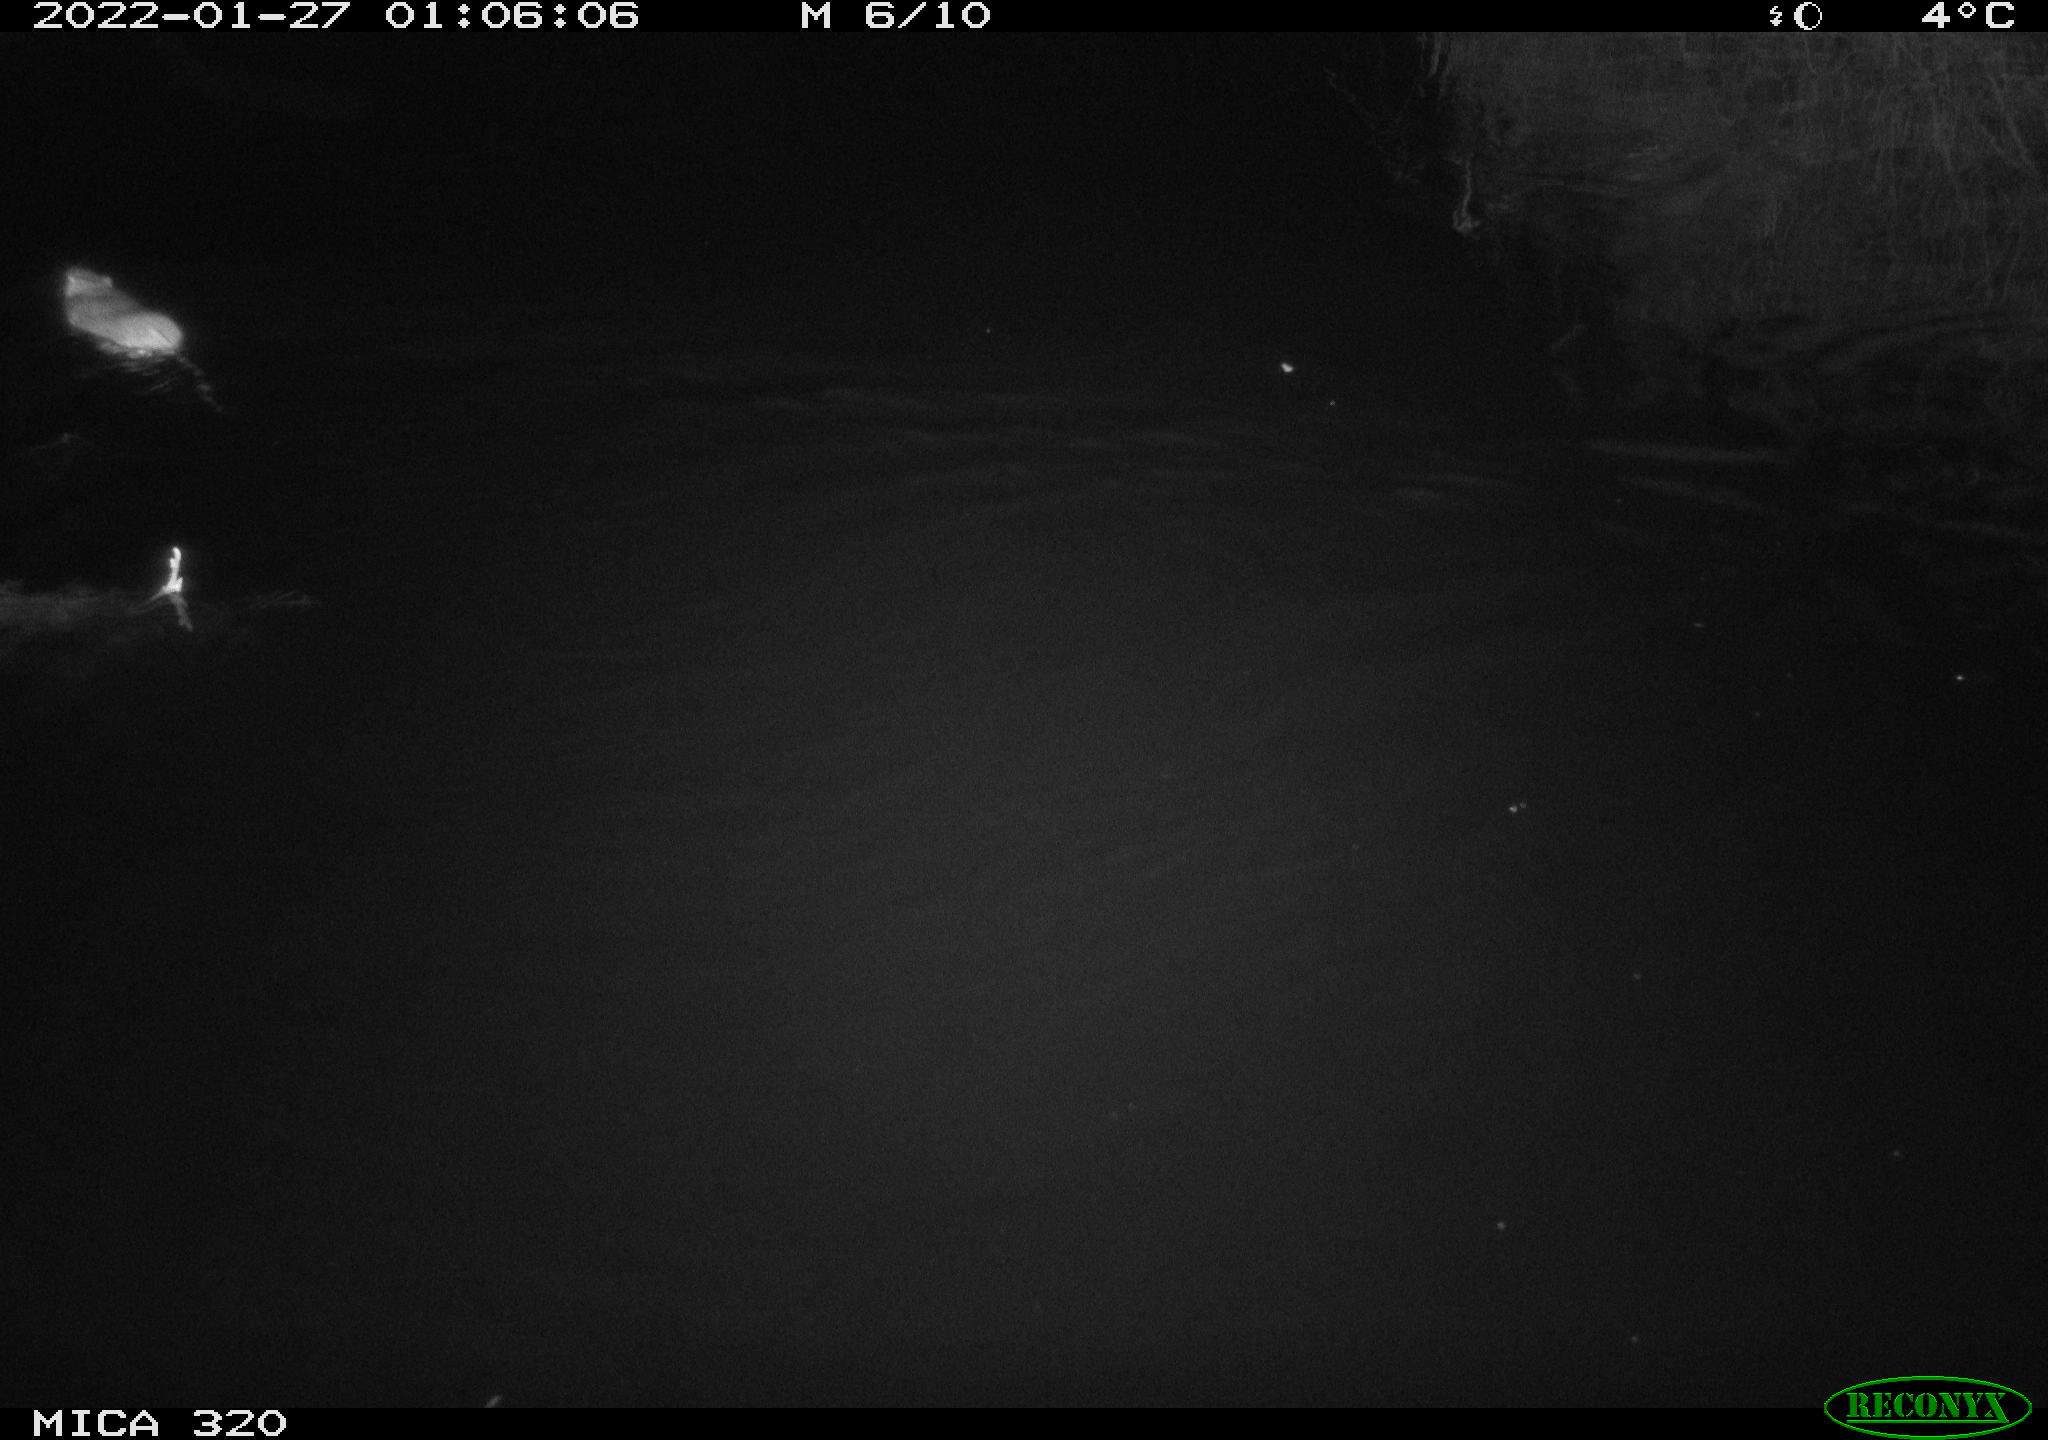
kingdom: Animalia
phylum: Chordata
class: Mammalia
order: Rodentia
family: Muridae
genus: Rattus
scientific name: Rattus norvegicus
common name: Brown rat
